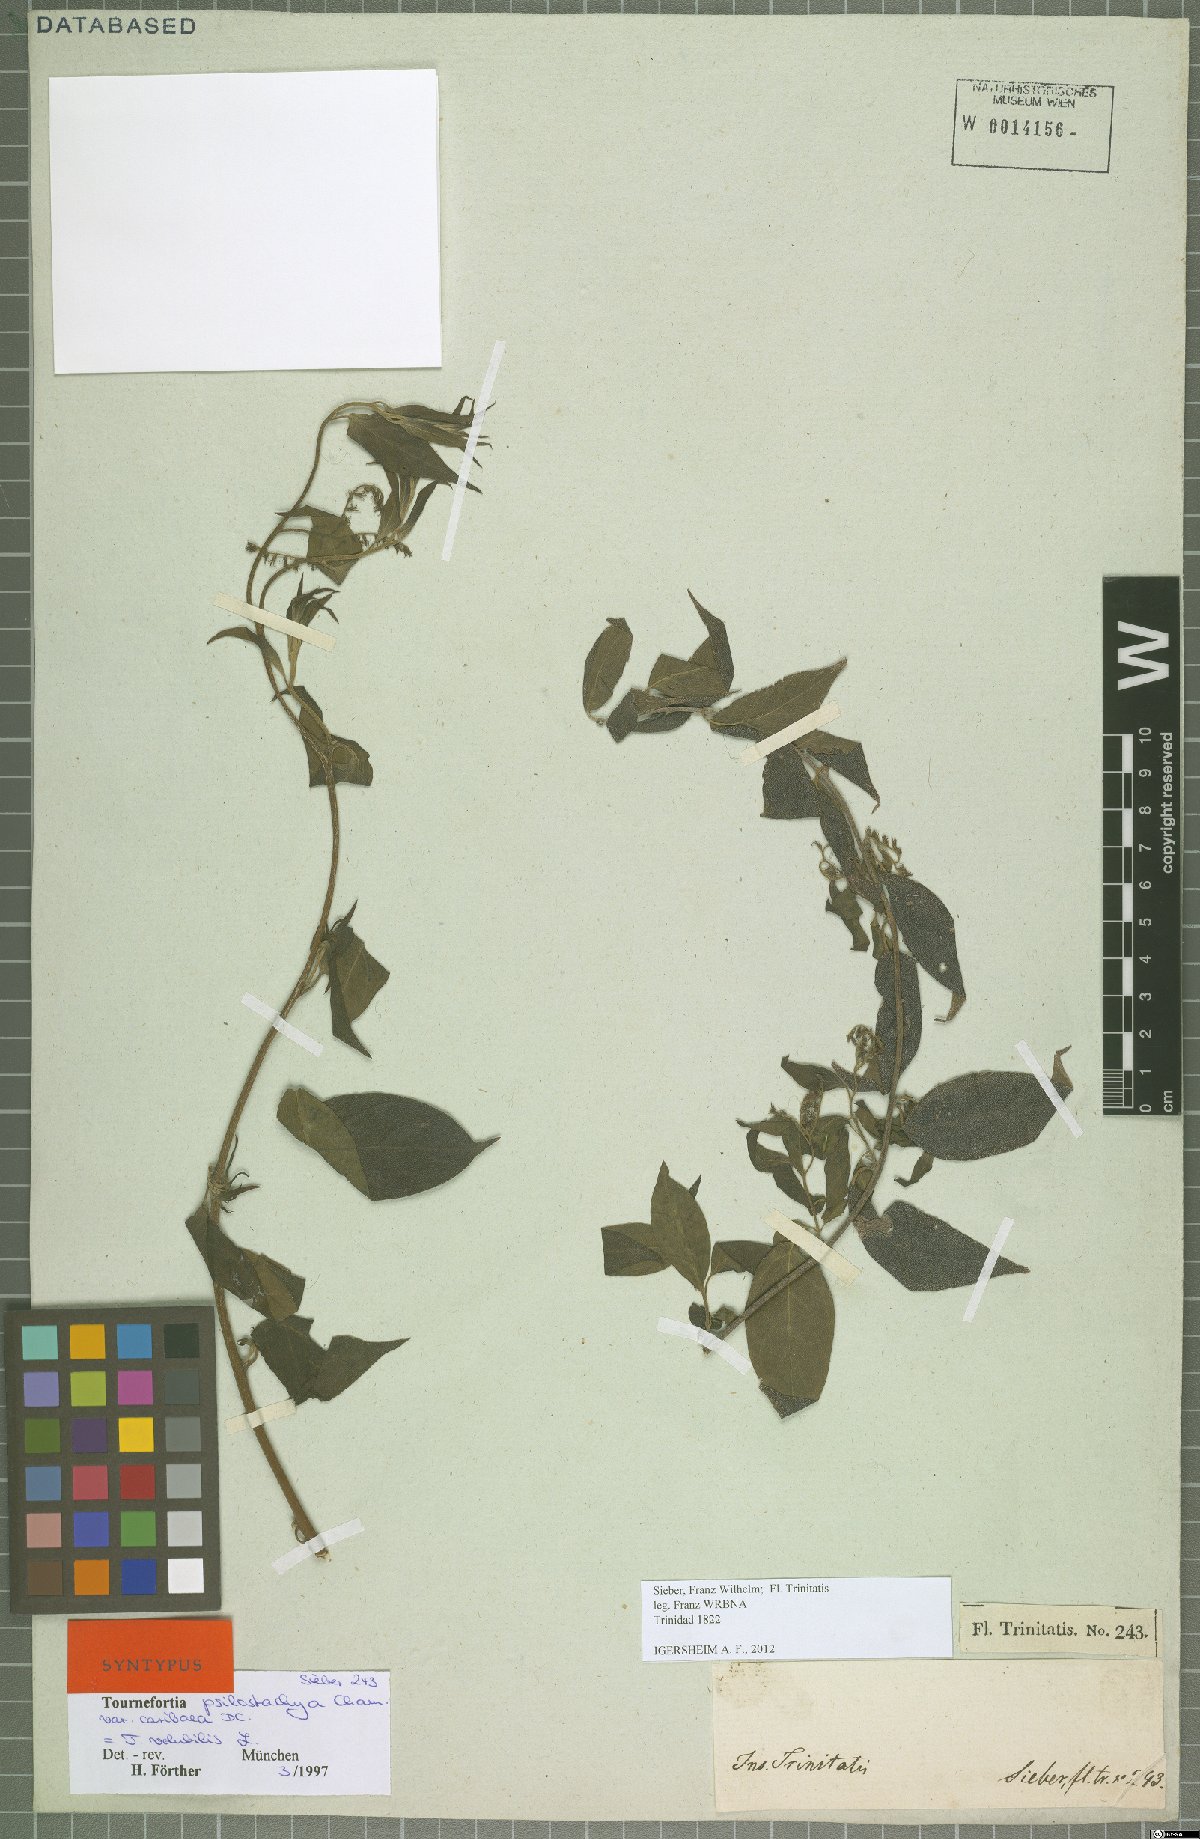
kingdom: Plantae
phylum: Tracheophyta
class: Magnoliopsida
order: Boraginales
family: Heliotropiaceae
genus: Myriopus
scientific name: Myriopus volubilis
